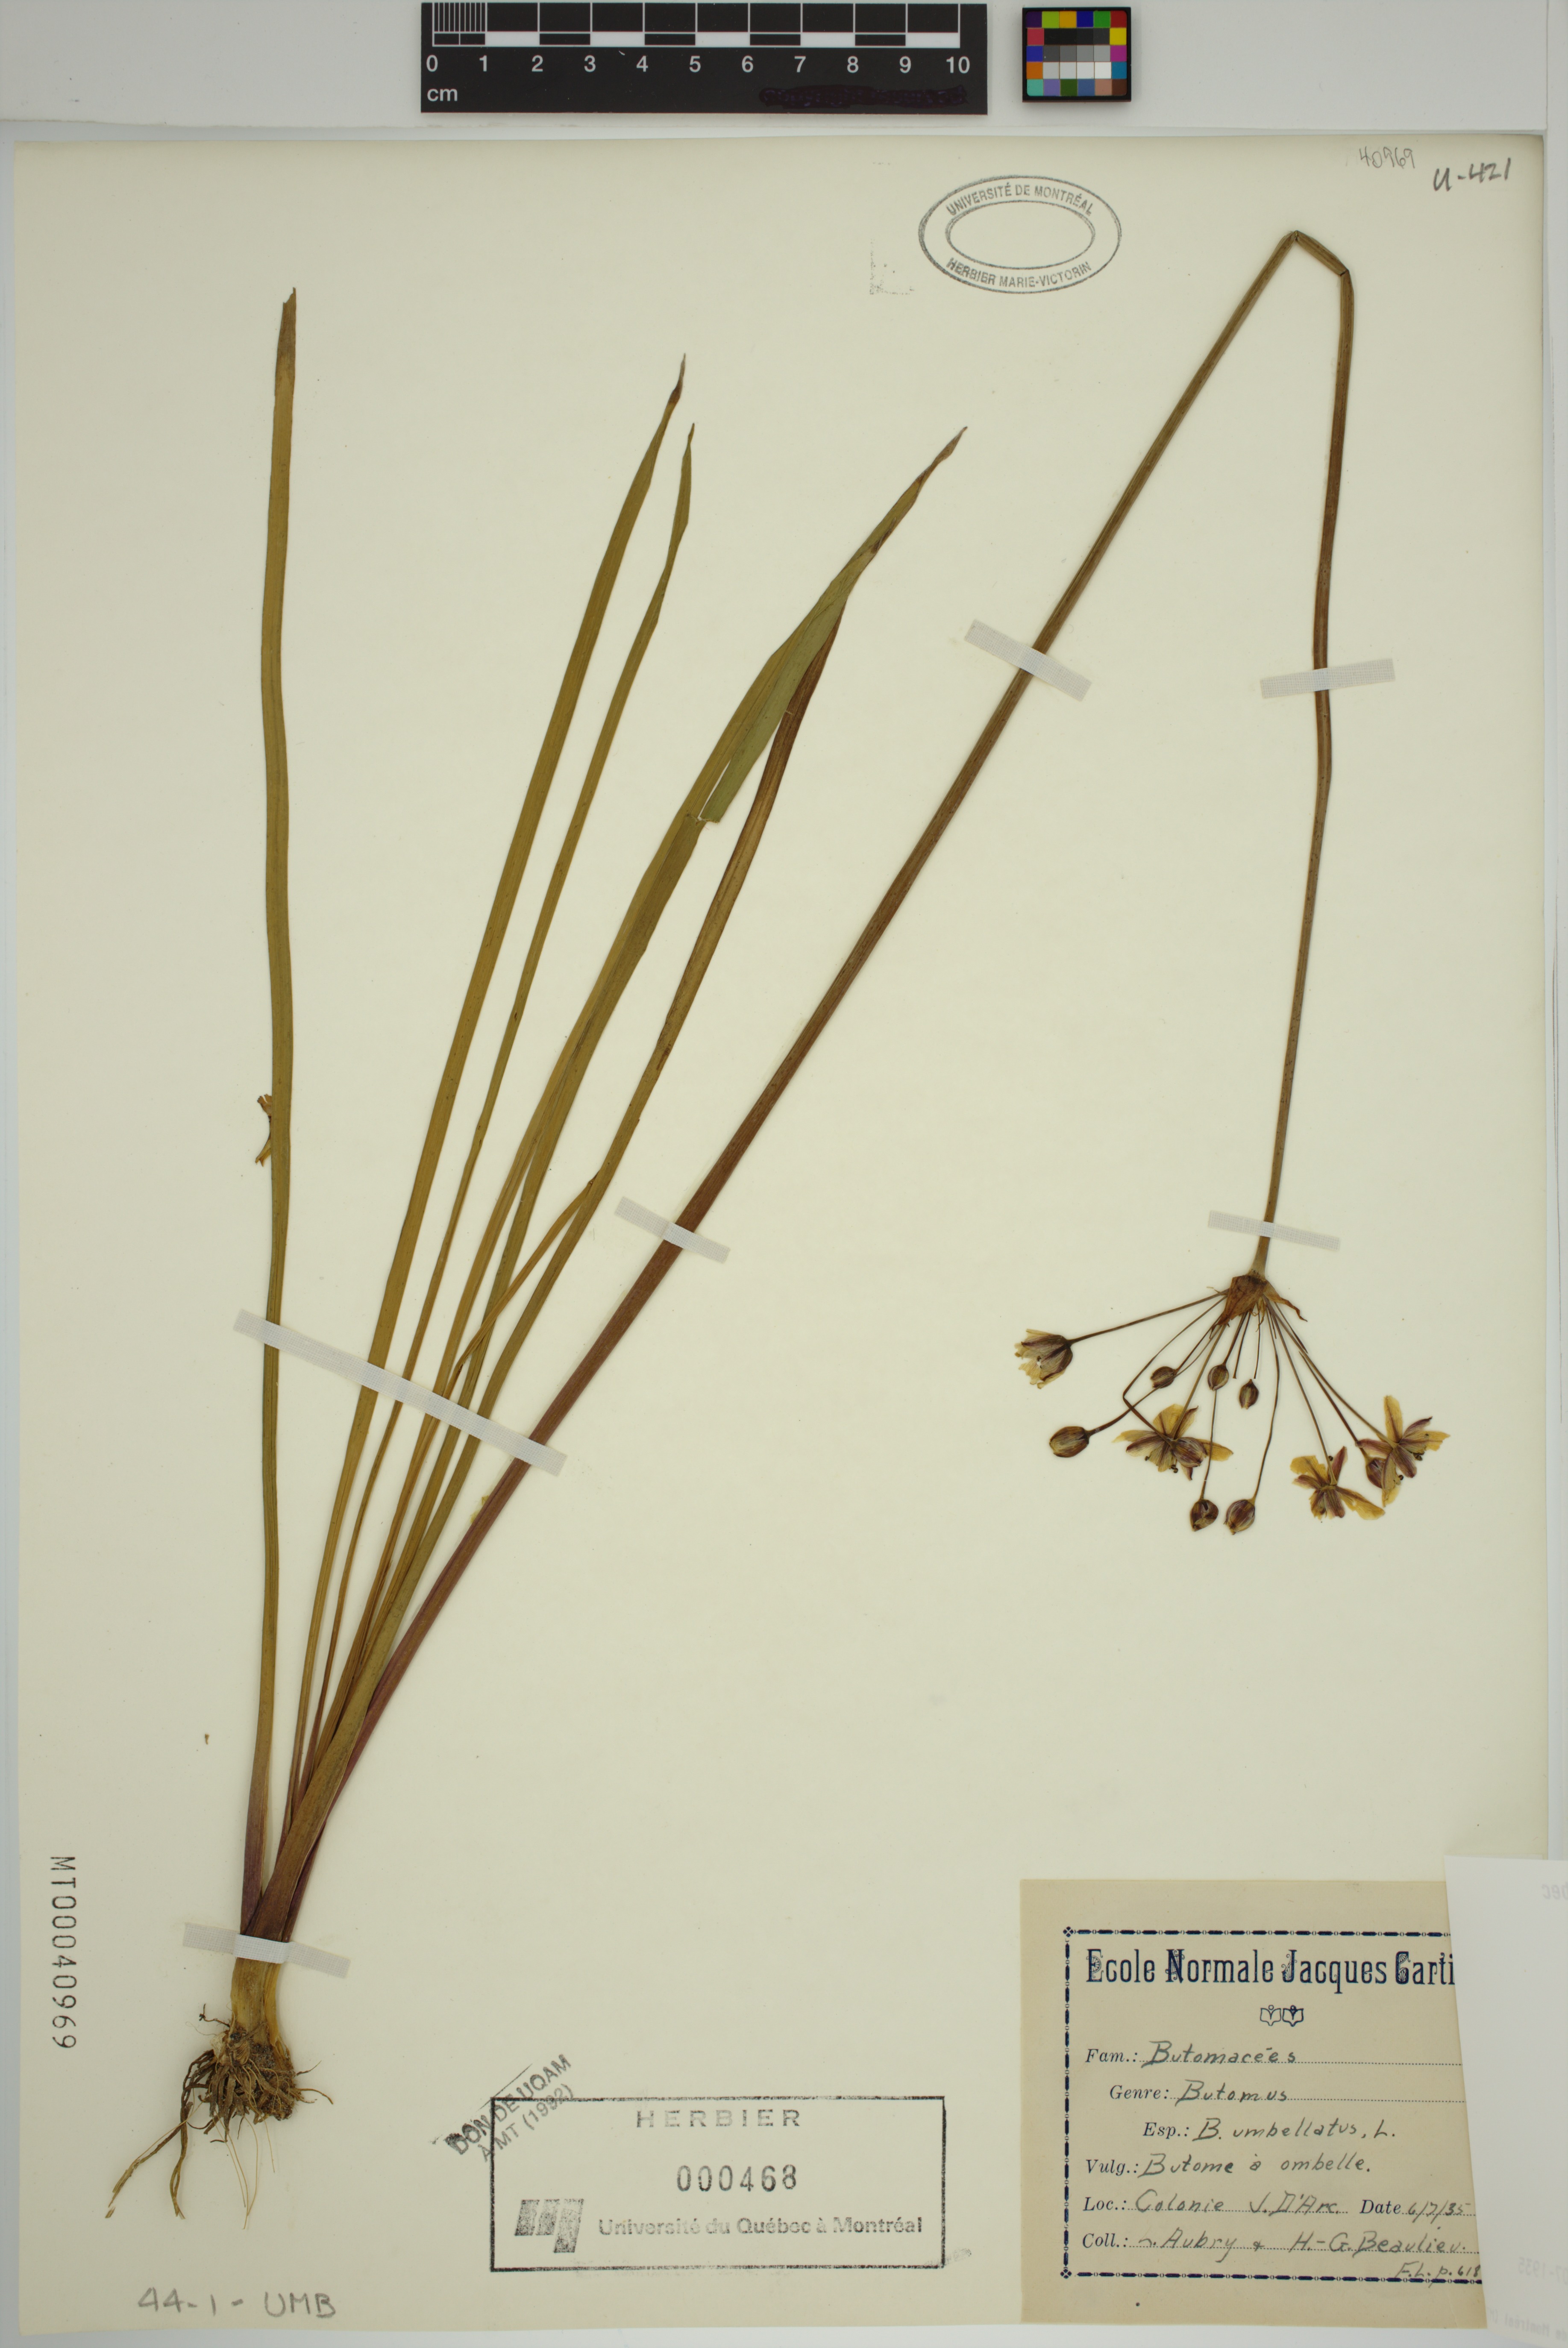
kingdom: Plantae
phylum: Tracheophyta
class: Liliopsida
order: Alismatales
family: Butomaceae
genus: Butomus
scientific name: Butomus umbellatus
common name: Flowering-rush
